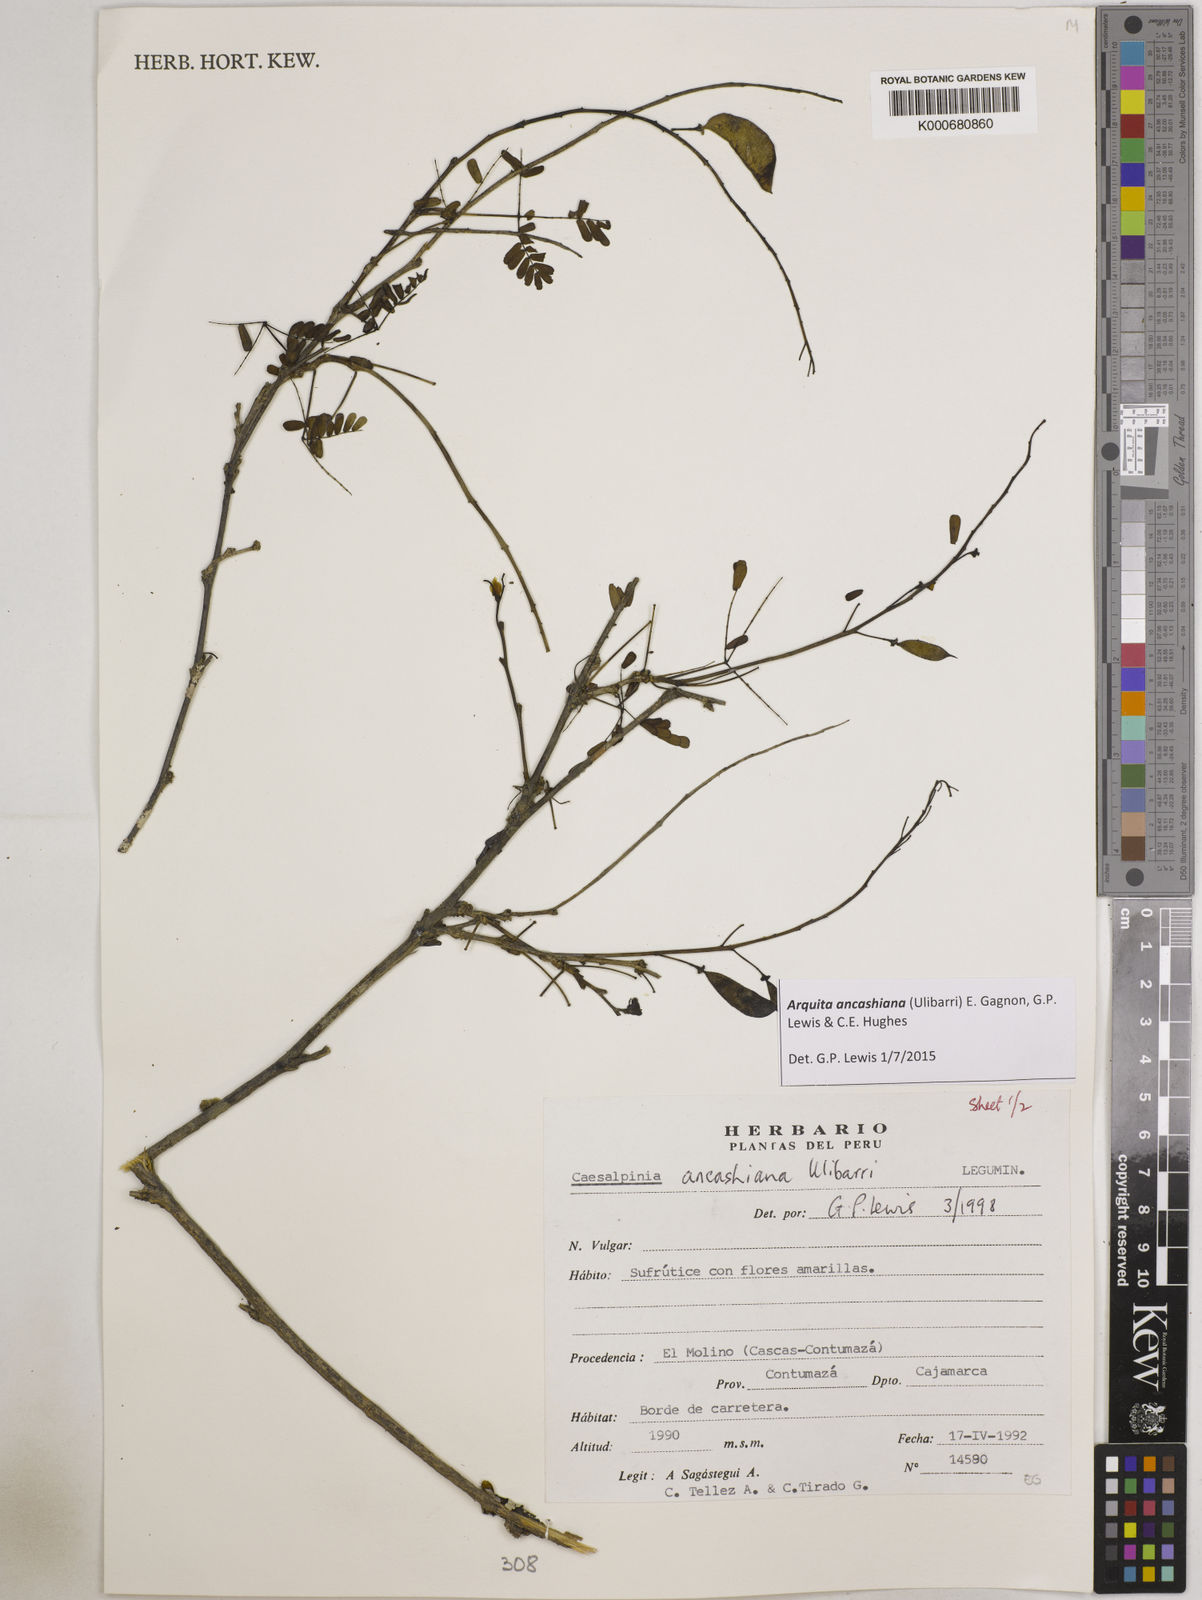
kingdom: Plantae
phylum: Tracheophyta
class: Magnoliopsida
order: Fabales
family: Fabaceae
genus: Arquita
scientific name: Arquita ancashiana
